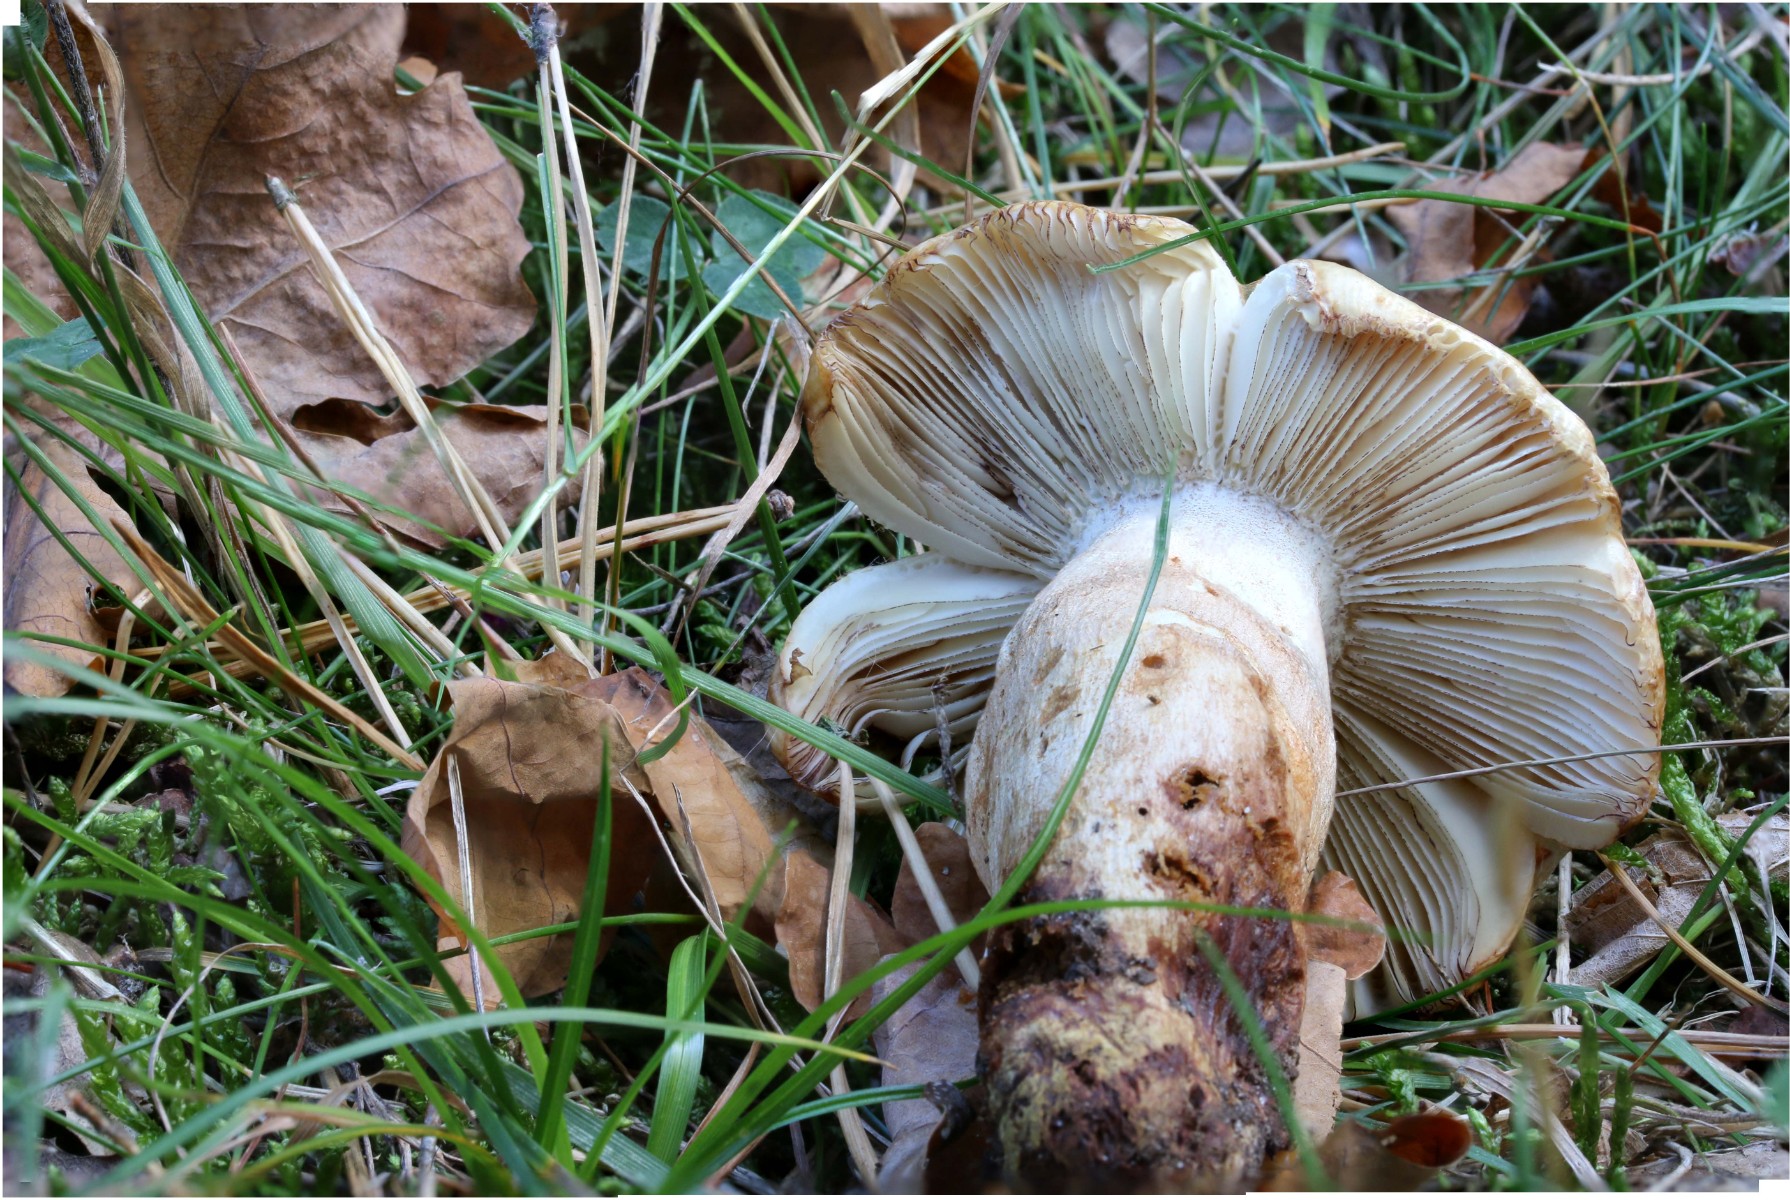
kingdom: Fungi
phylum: Basidiomycota
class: Agaricomycetes
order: Russulales
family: Russulaceae
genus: Russula
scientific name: Russula illota
